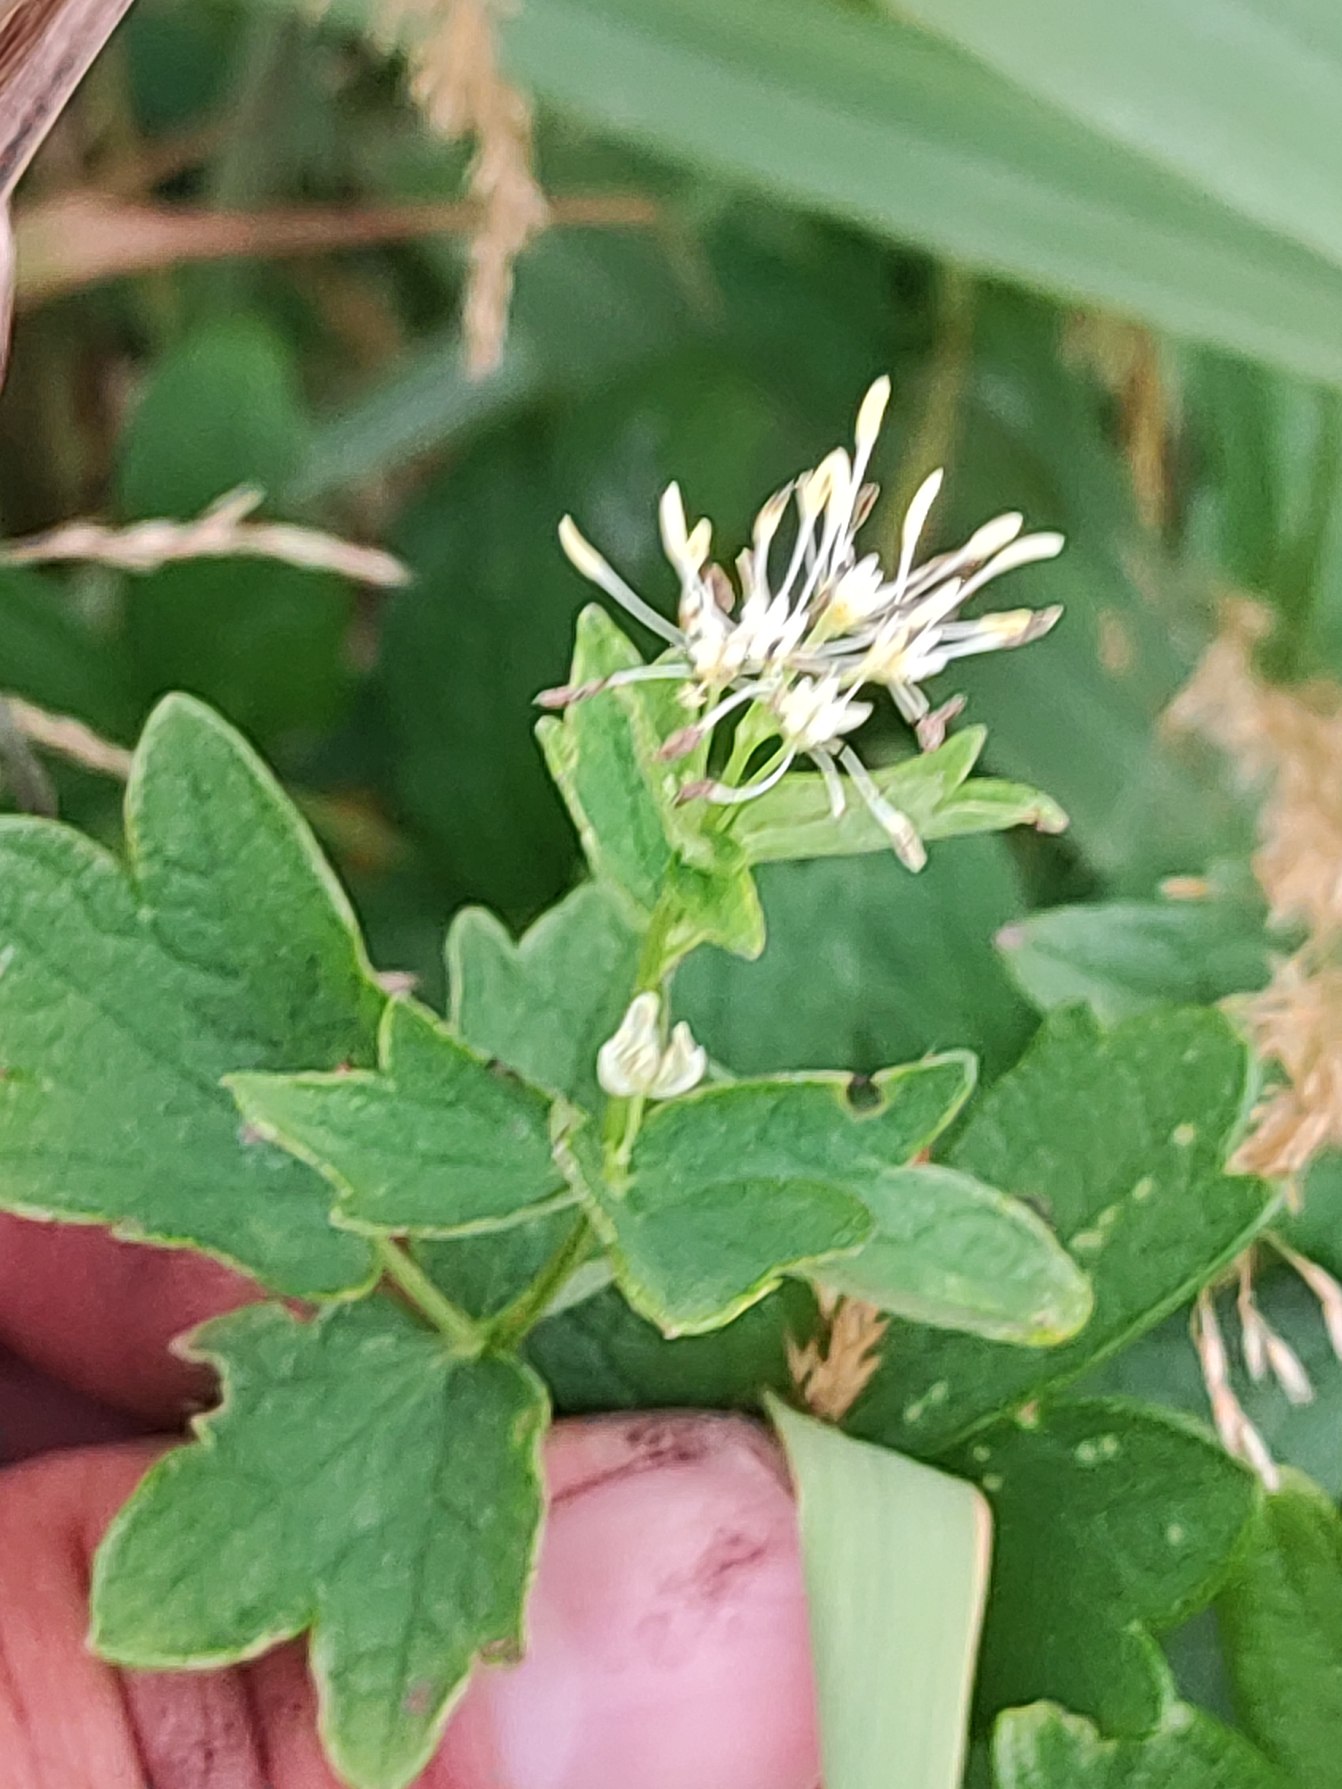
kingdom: Plantae
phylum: Tracheophyta
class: Magnoliopsida
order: Ranunculales
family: Ranunculaceae
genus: Thalictrum
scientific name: Thalictrum flavum
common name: Gul frøstjerne
